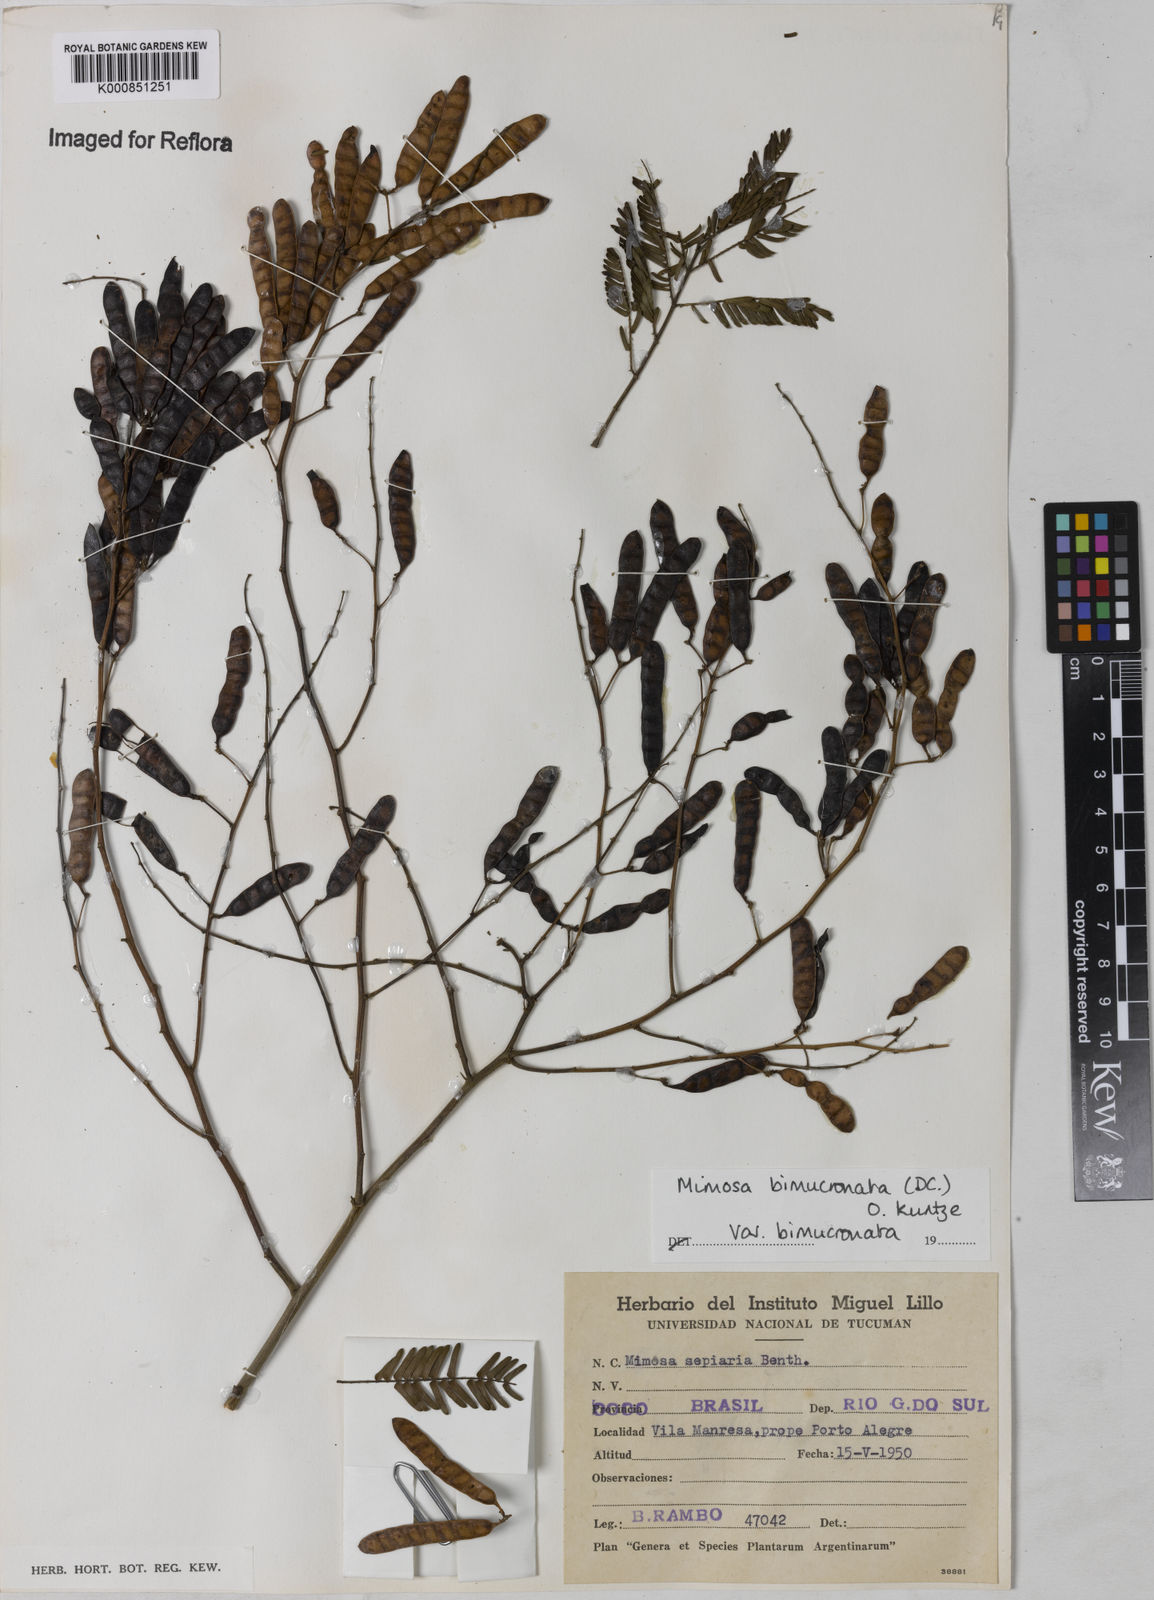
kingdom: Plantae
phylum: Tracheophyta
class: Magnoliopsida
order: Fabales
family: Fabaceae
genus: Mimosa
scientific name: Mimosa bimucronata
